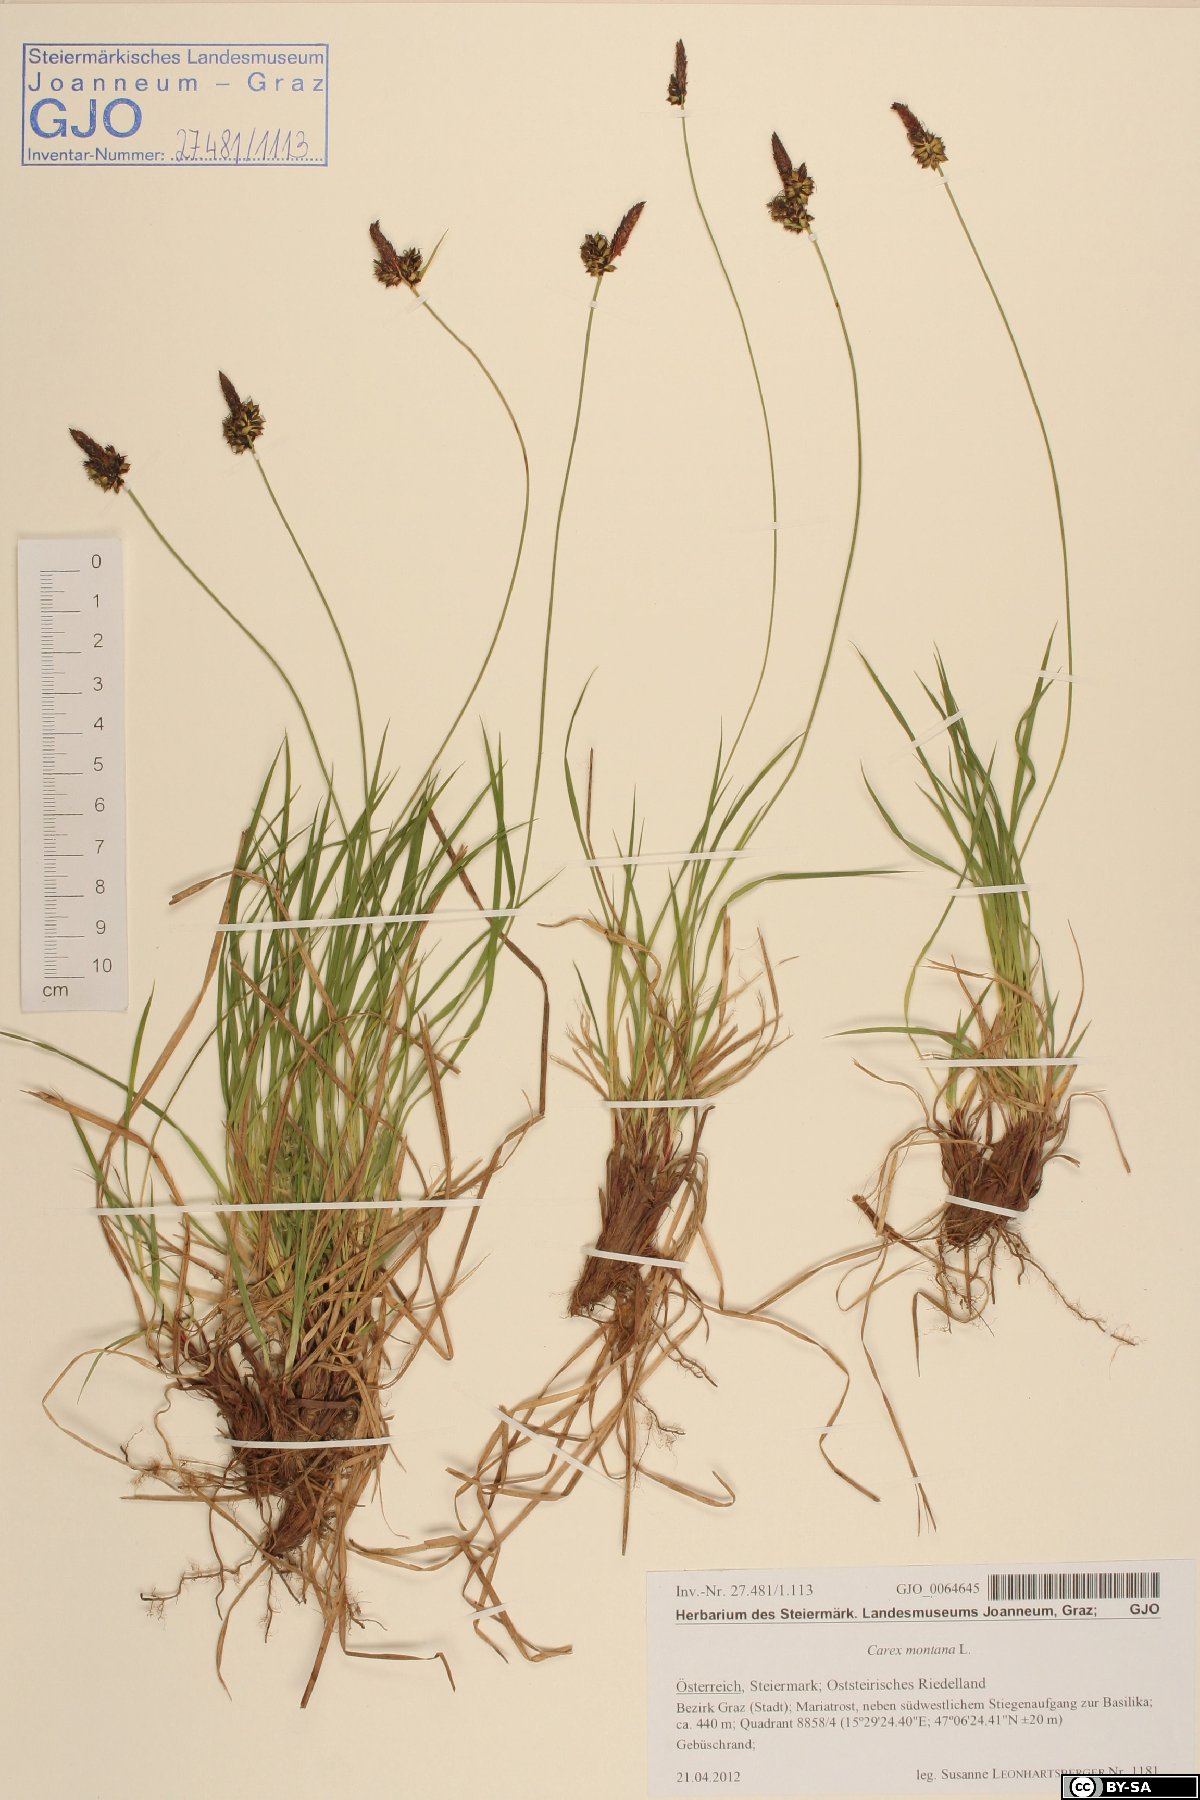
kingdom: Plantae
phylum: Tracheophyta
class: Liliopsida
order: Poales
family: Cyperaceae
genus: Carex
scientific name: Carex montana
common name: Soft-leaved sedge
